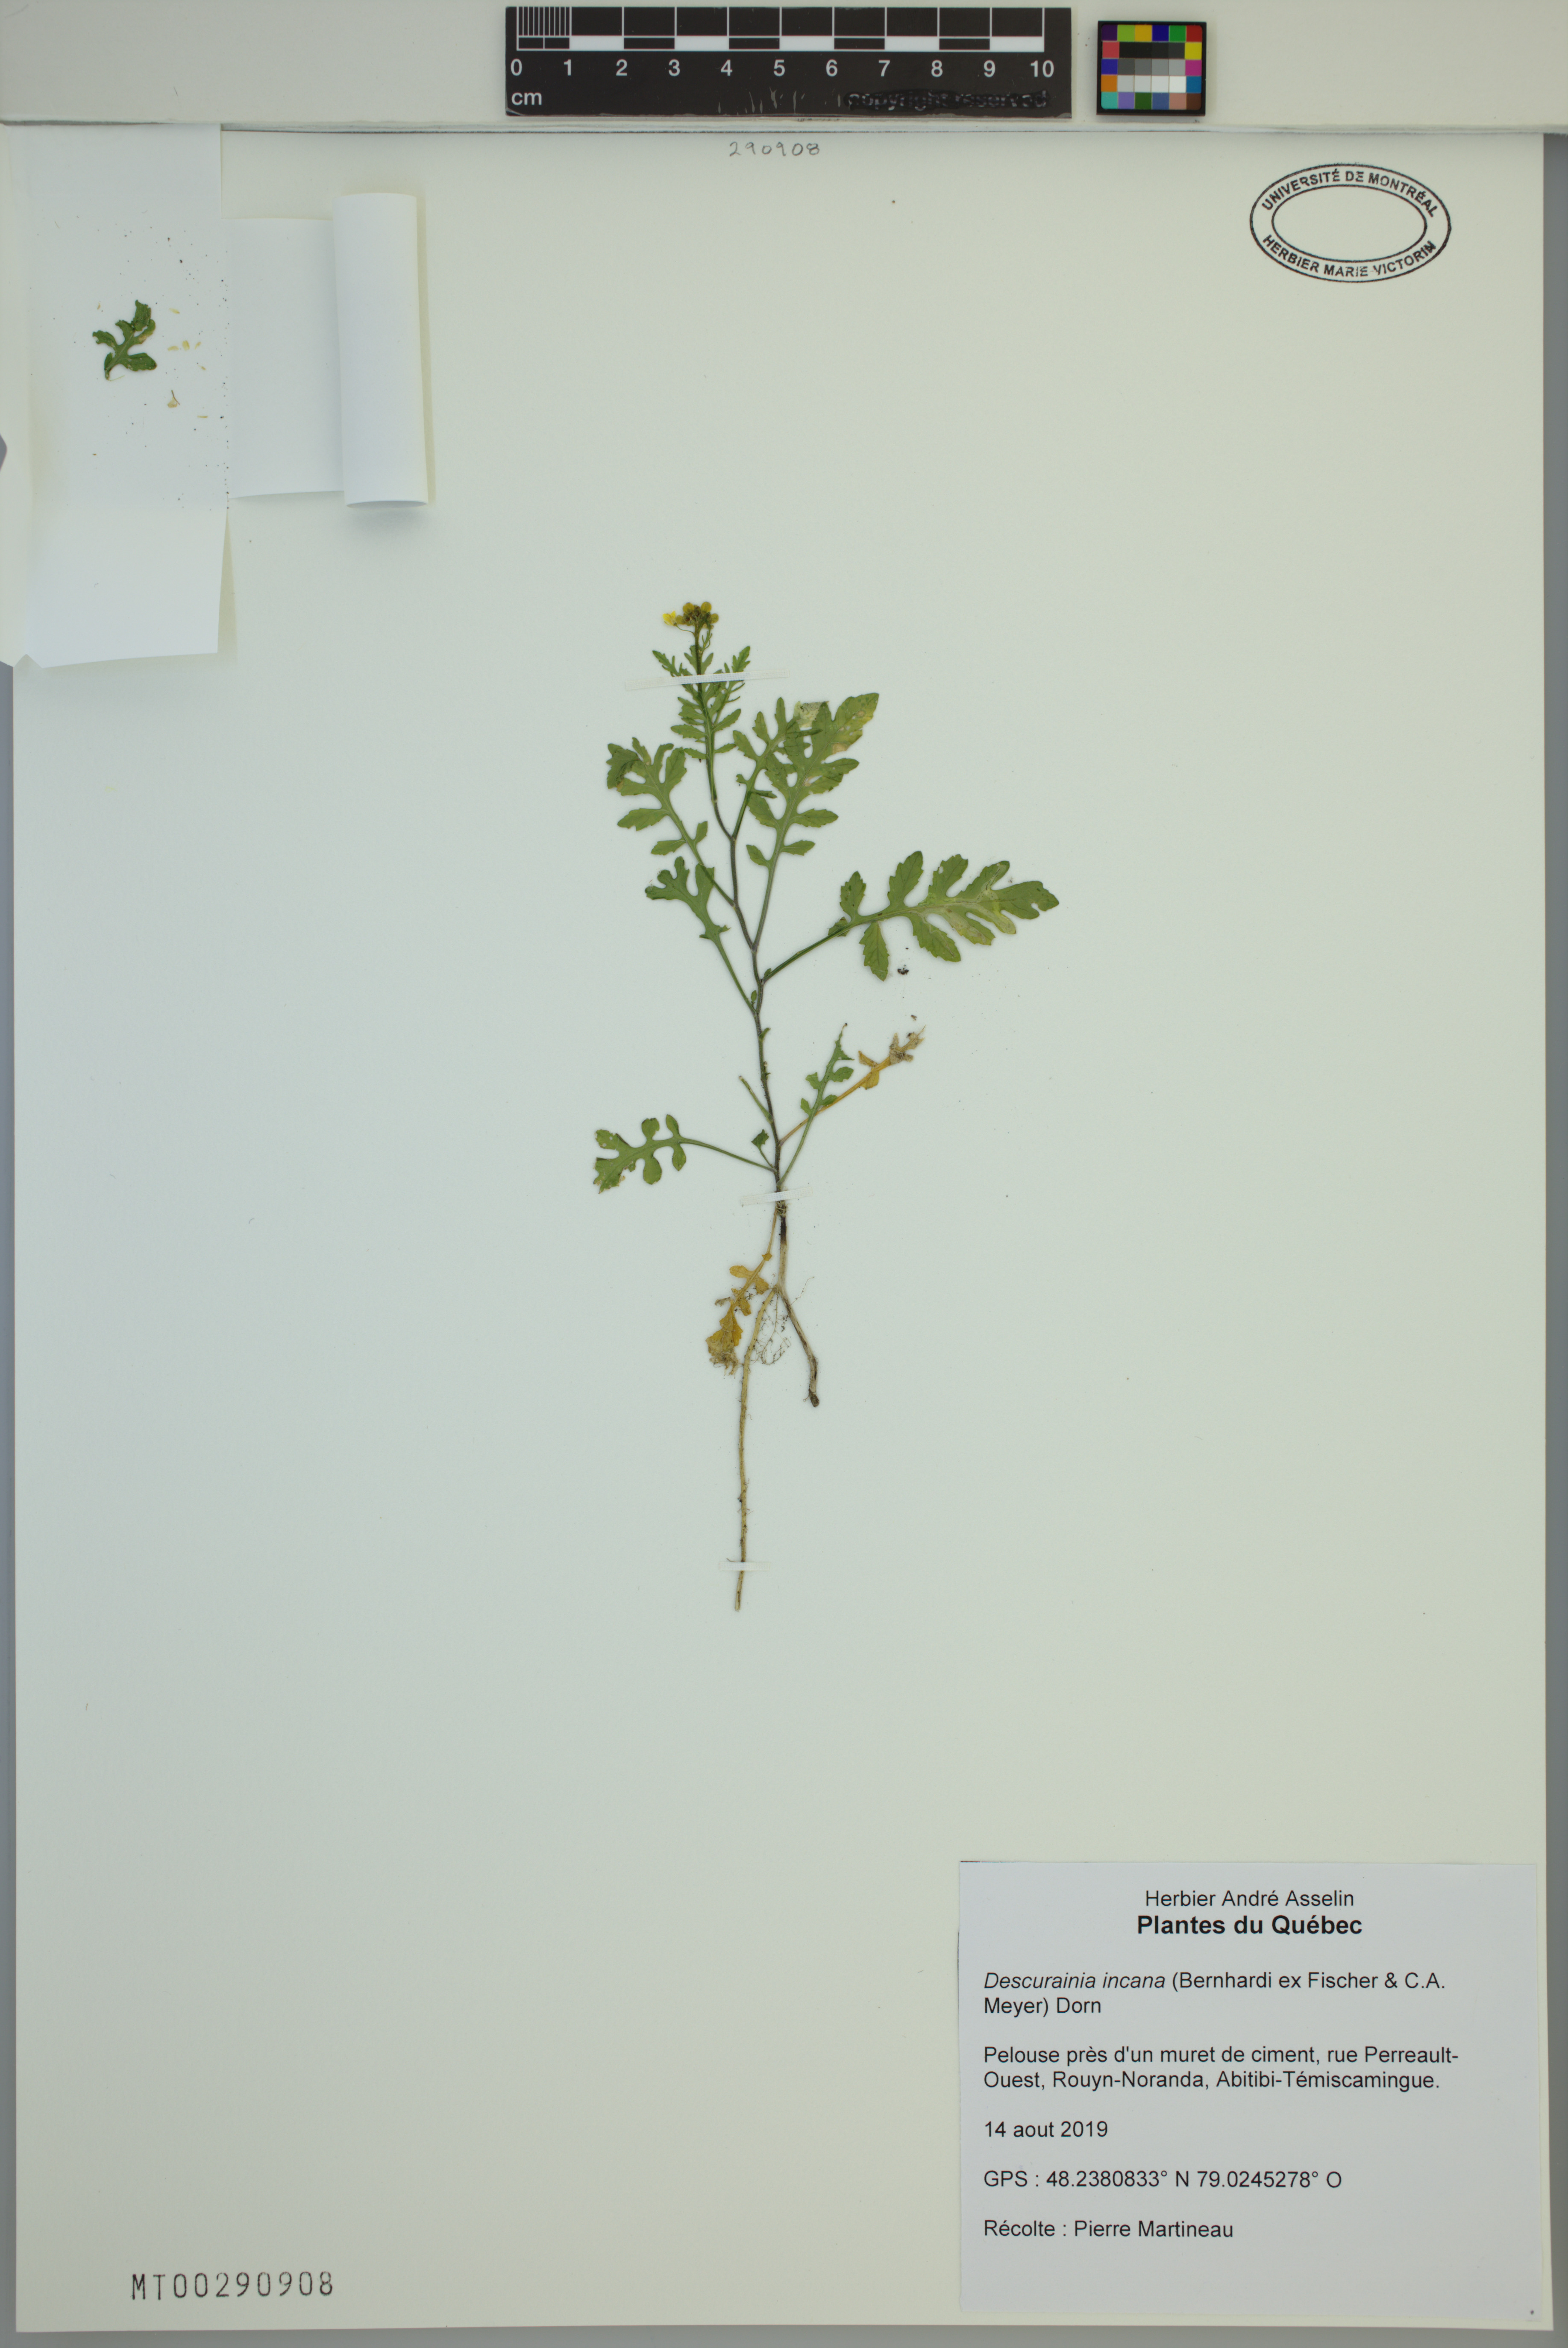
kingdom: Plantae
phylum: Tracheophyta
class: Magnoliopsida
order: Brassicales
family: Brassicaceae
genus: Descurainia
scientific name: Descurainia incana
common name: Gray tansy mustard
